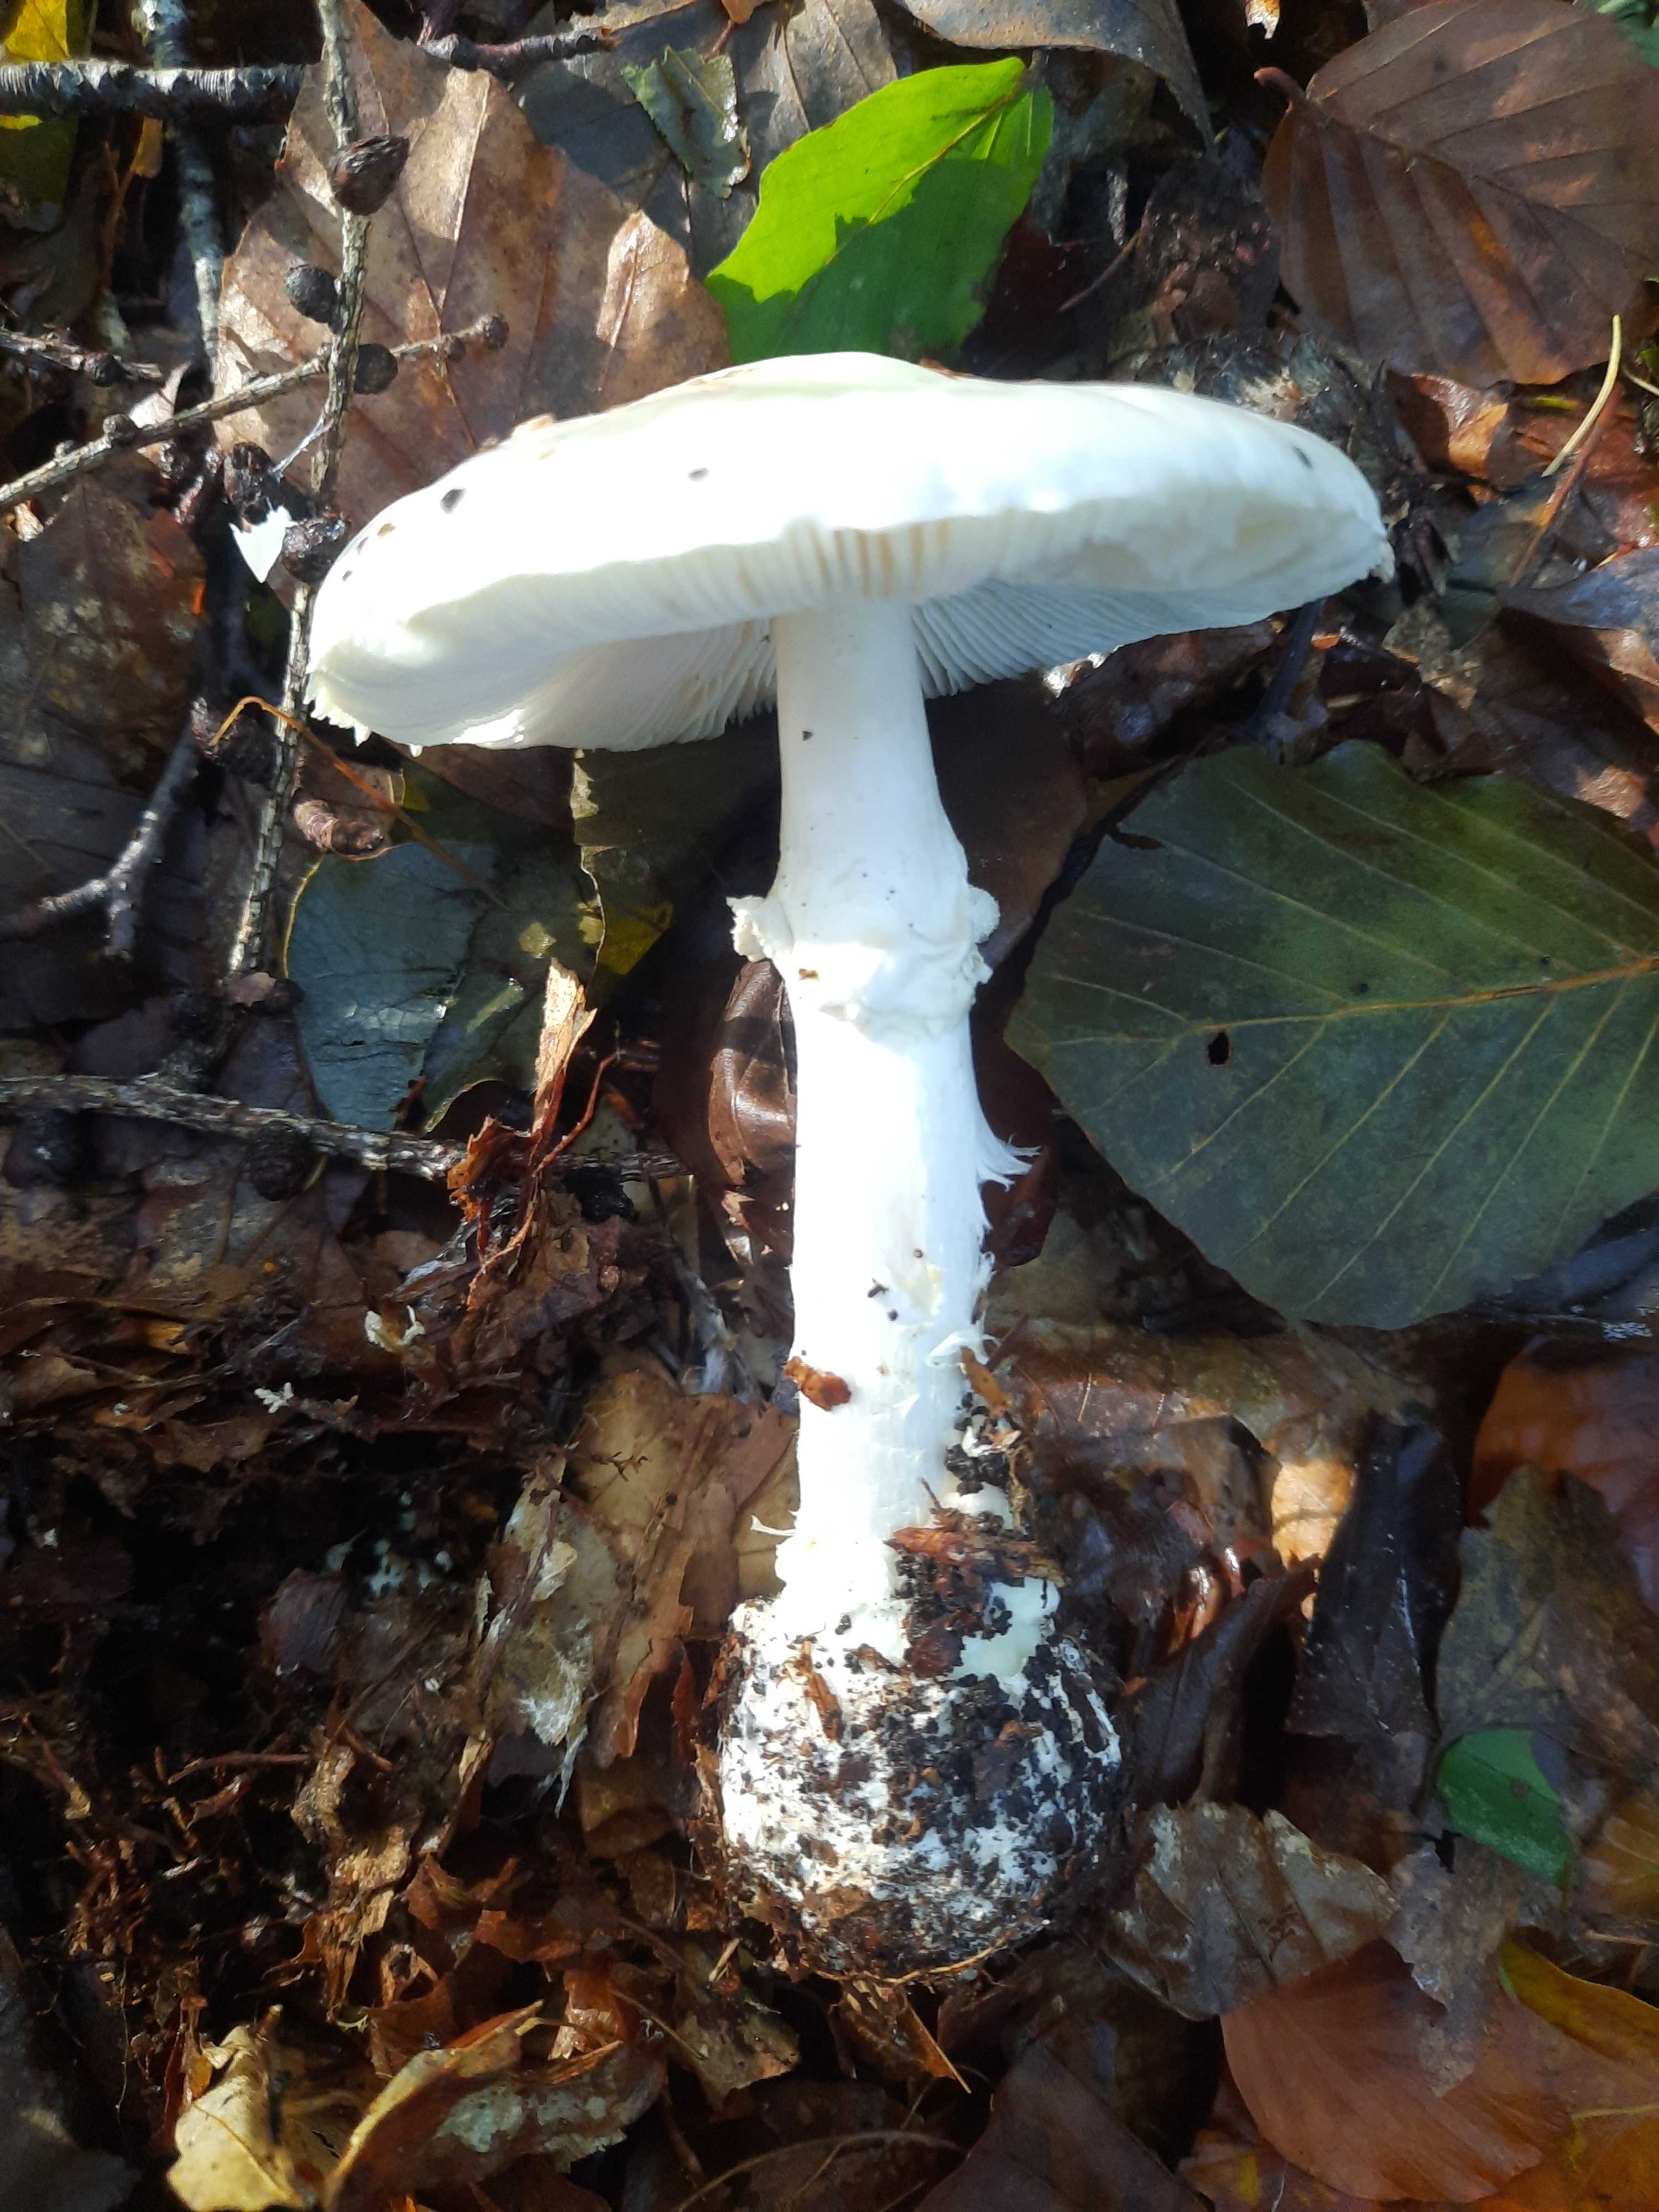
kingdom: Fungi
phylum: Basidiomycota
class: Agaricomycetes
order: Agaricales
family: Amanitaceae
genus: Amanita
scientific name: Amanita virosa
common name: snehvid fluesvamp
